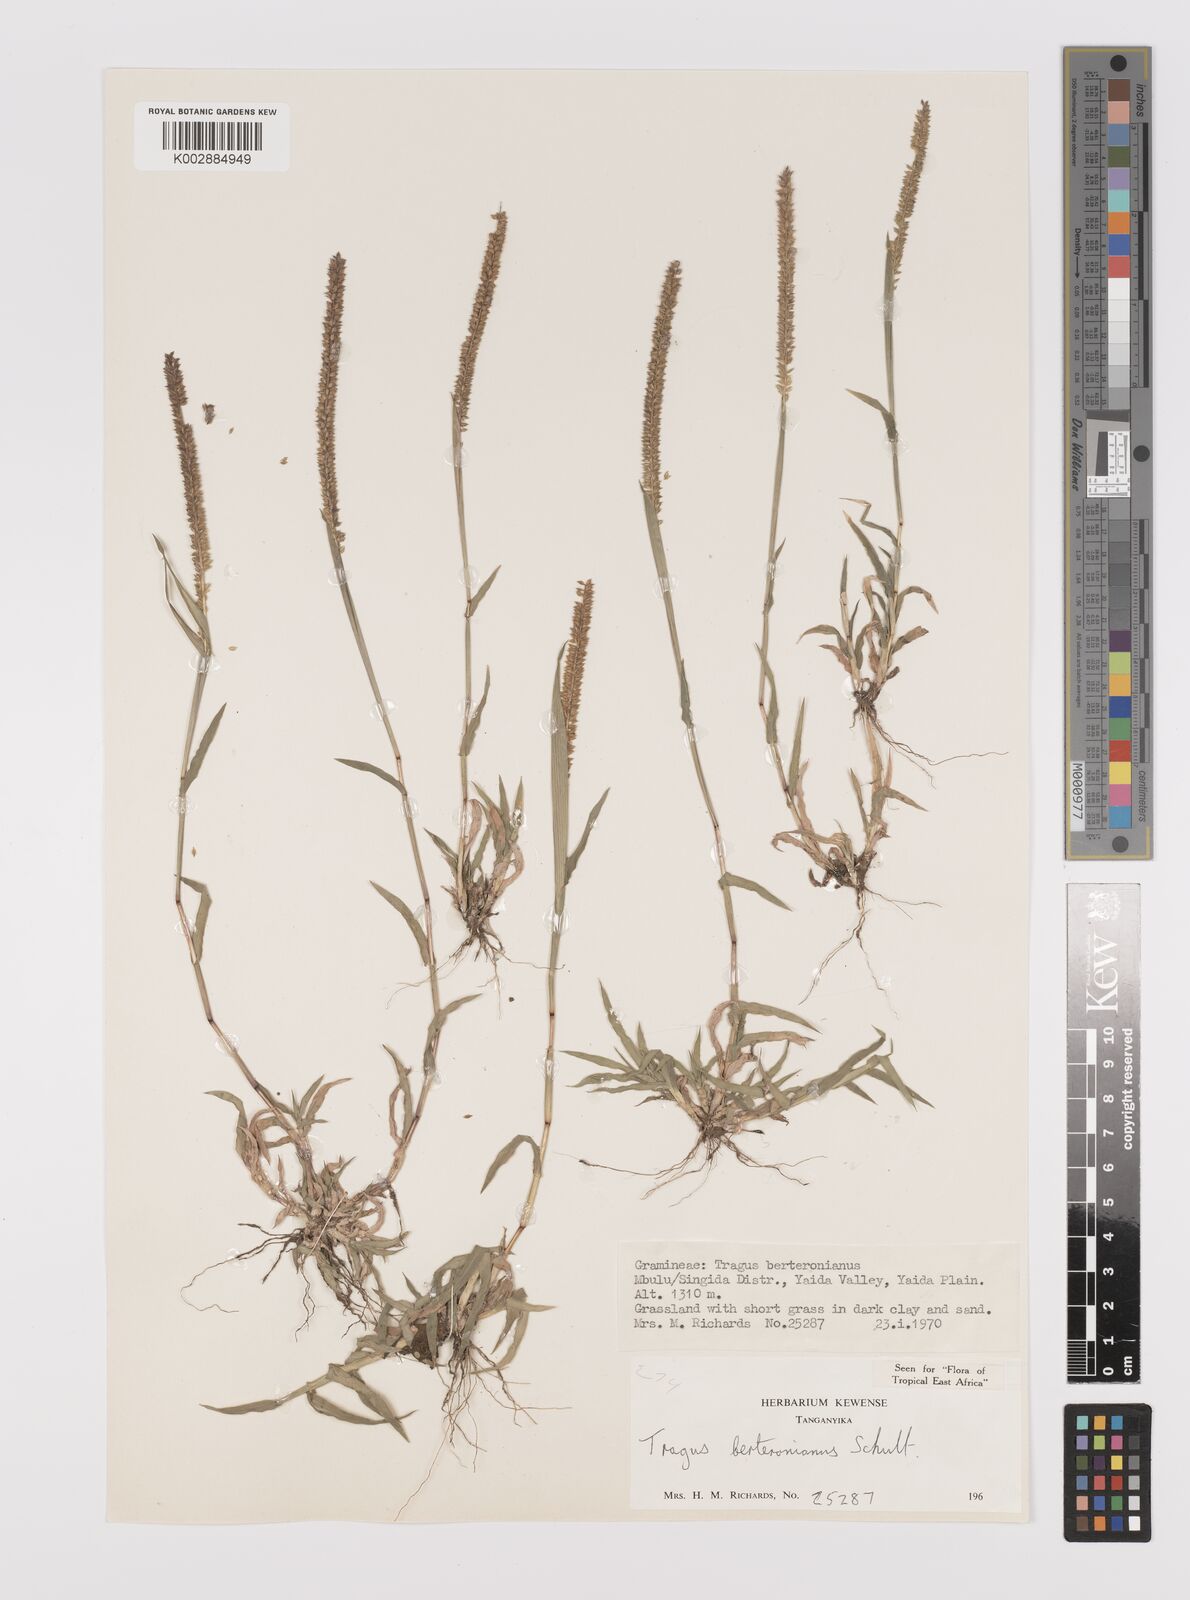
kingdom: Plantae
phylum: Tracheophyta
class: Liliopsida
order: Poales
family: Poaceae
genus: Tragus
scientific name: Tragus berteronianus
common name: African bur-grass
